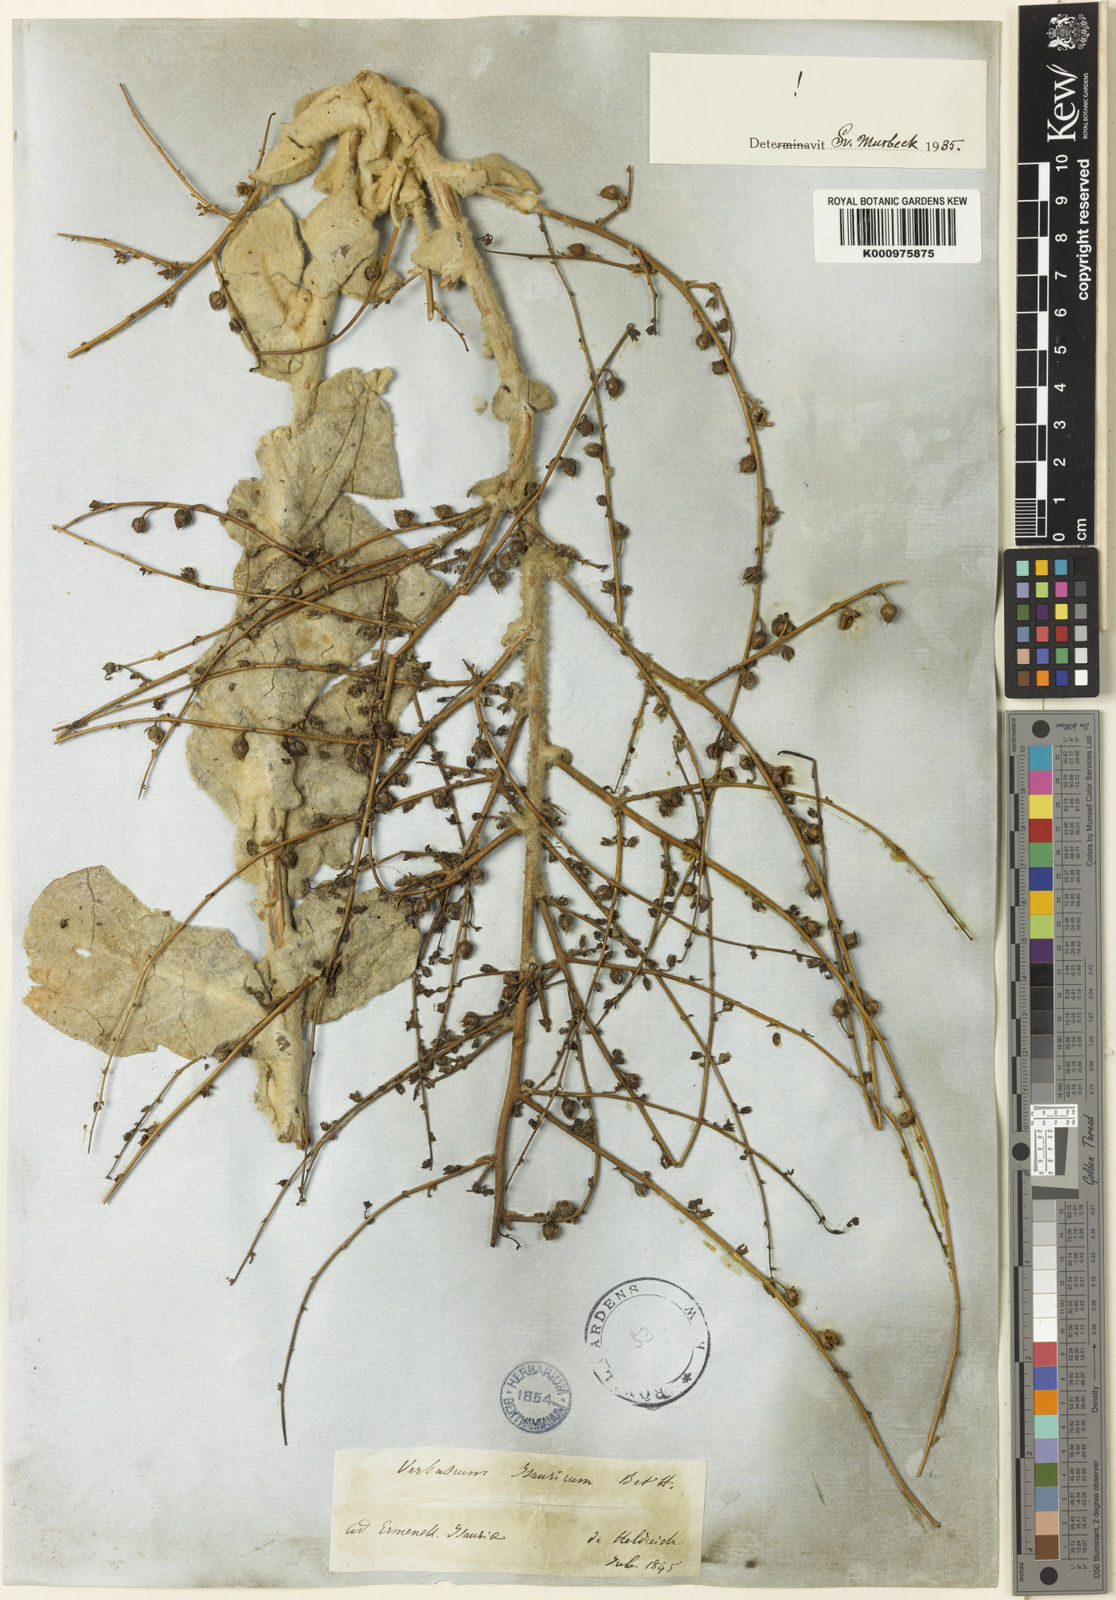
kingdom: Plantae
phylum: Tracheophyta
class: Magnoliopsida
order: Lamiales
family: Scrophulariaceae
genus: Verbascum
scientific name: Verbascum isauricum
